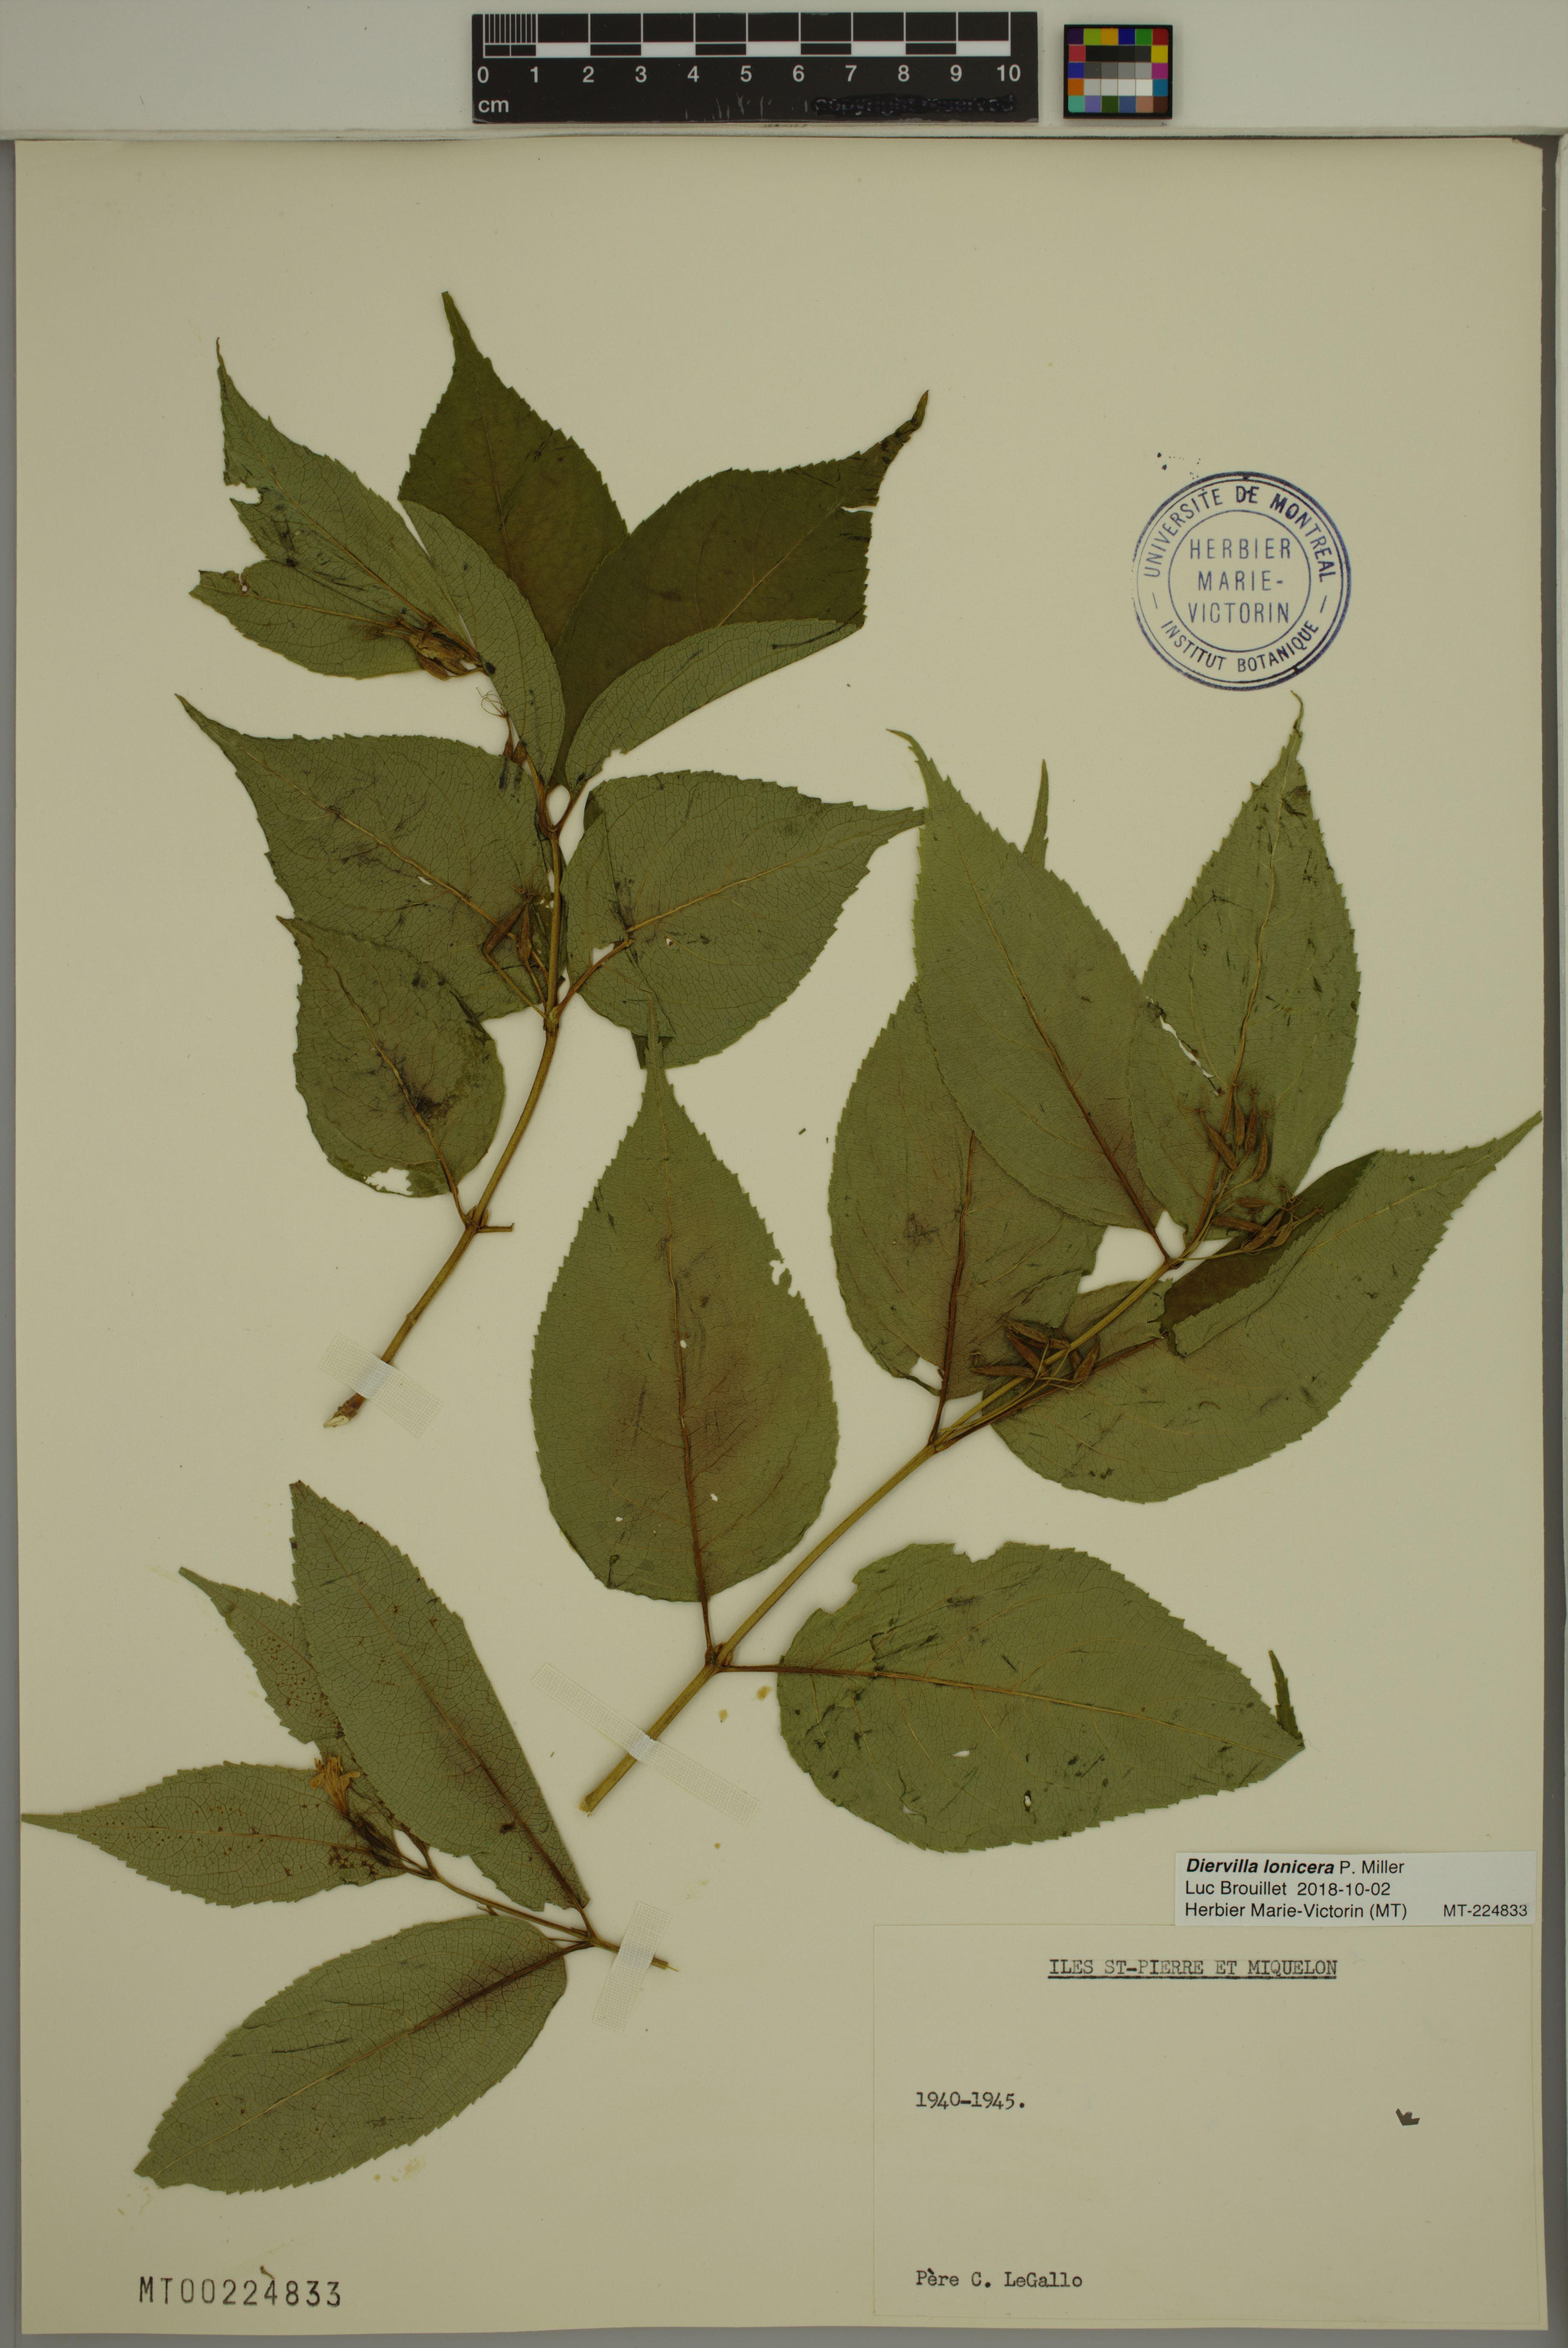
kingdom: Plantae
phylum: Tracheophyta
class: Magnoliopsida
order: Dipsacales
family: Caprifoliaceae
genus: Diervilla
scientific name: Diervilla lonicera
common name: Bush-honeysuckle
